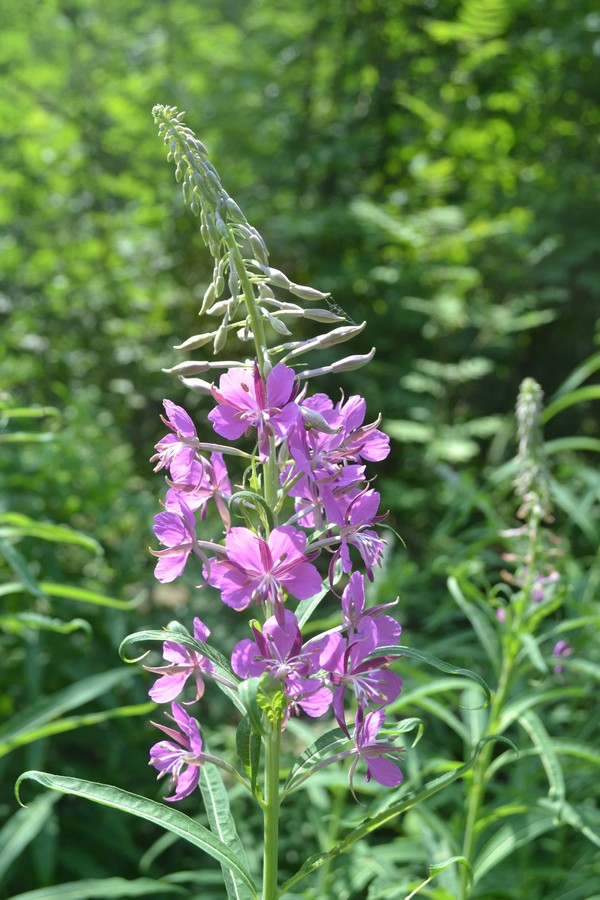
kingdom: Plantae
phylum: Tracheophyta
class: Magnoliopsida
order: Myrtales
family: Onagraceae
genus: Chamaenerion
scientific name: Chamaenerion angustifolium
